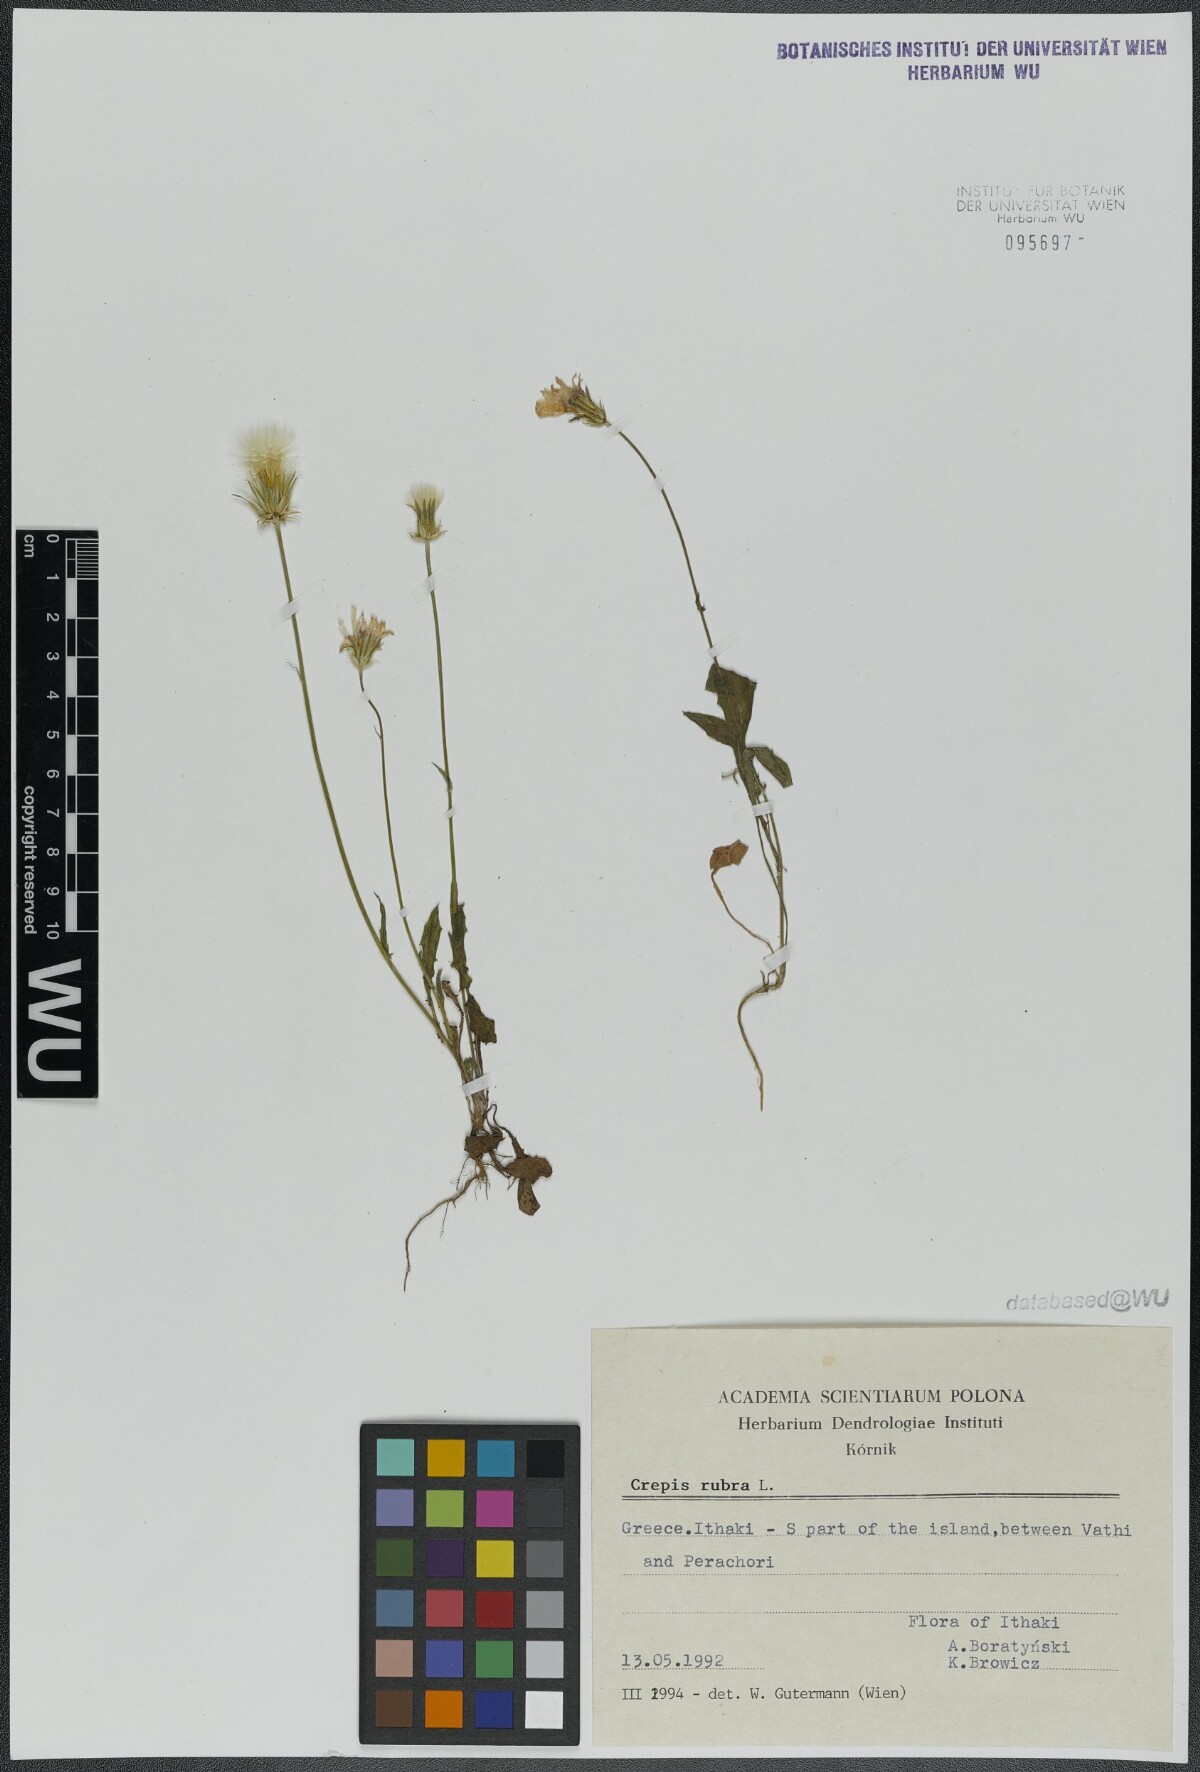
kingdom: Plantae
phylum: Tracheophyta
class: Magnoliopsida
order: Asterales
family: Asteraceae
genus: Crepis
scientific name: Crepis rubra
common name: Pink hawk's-beard
